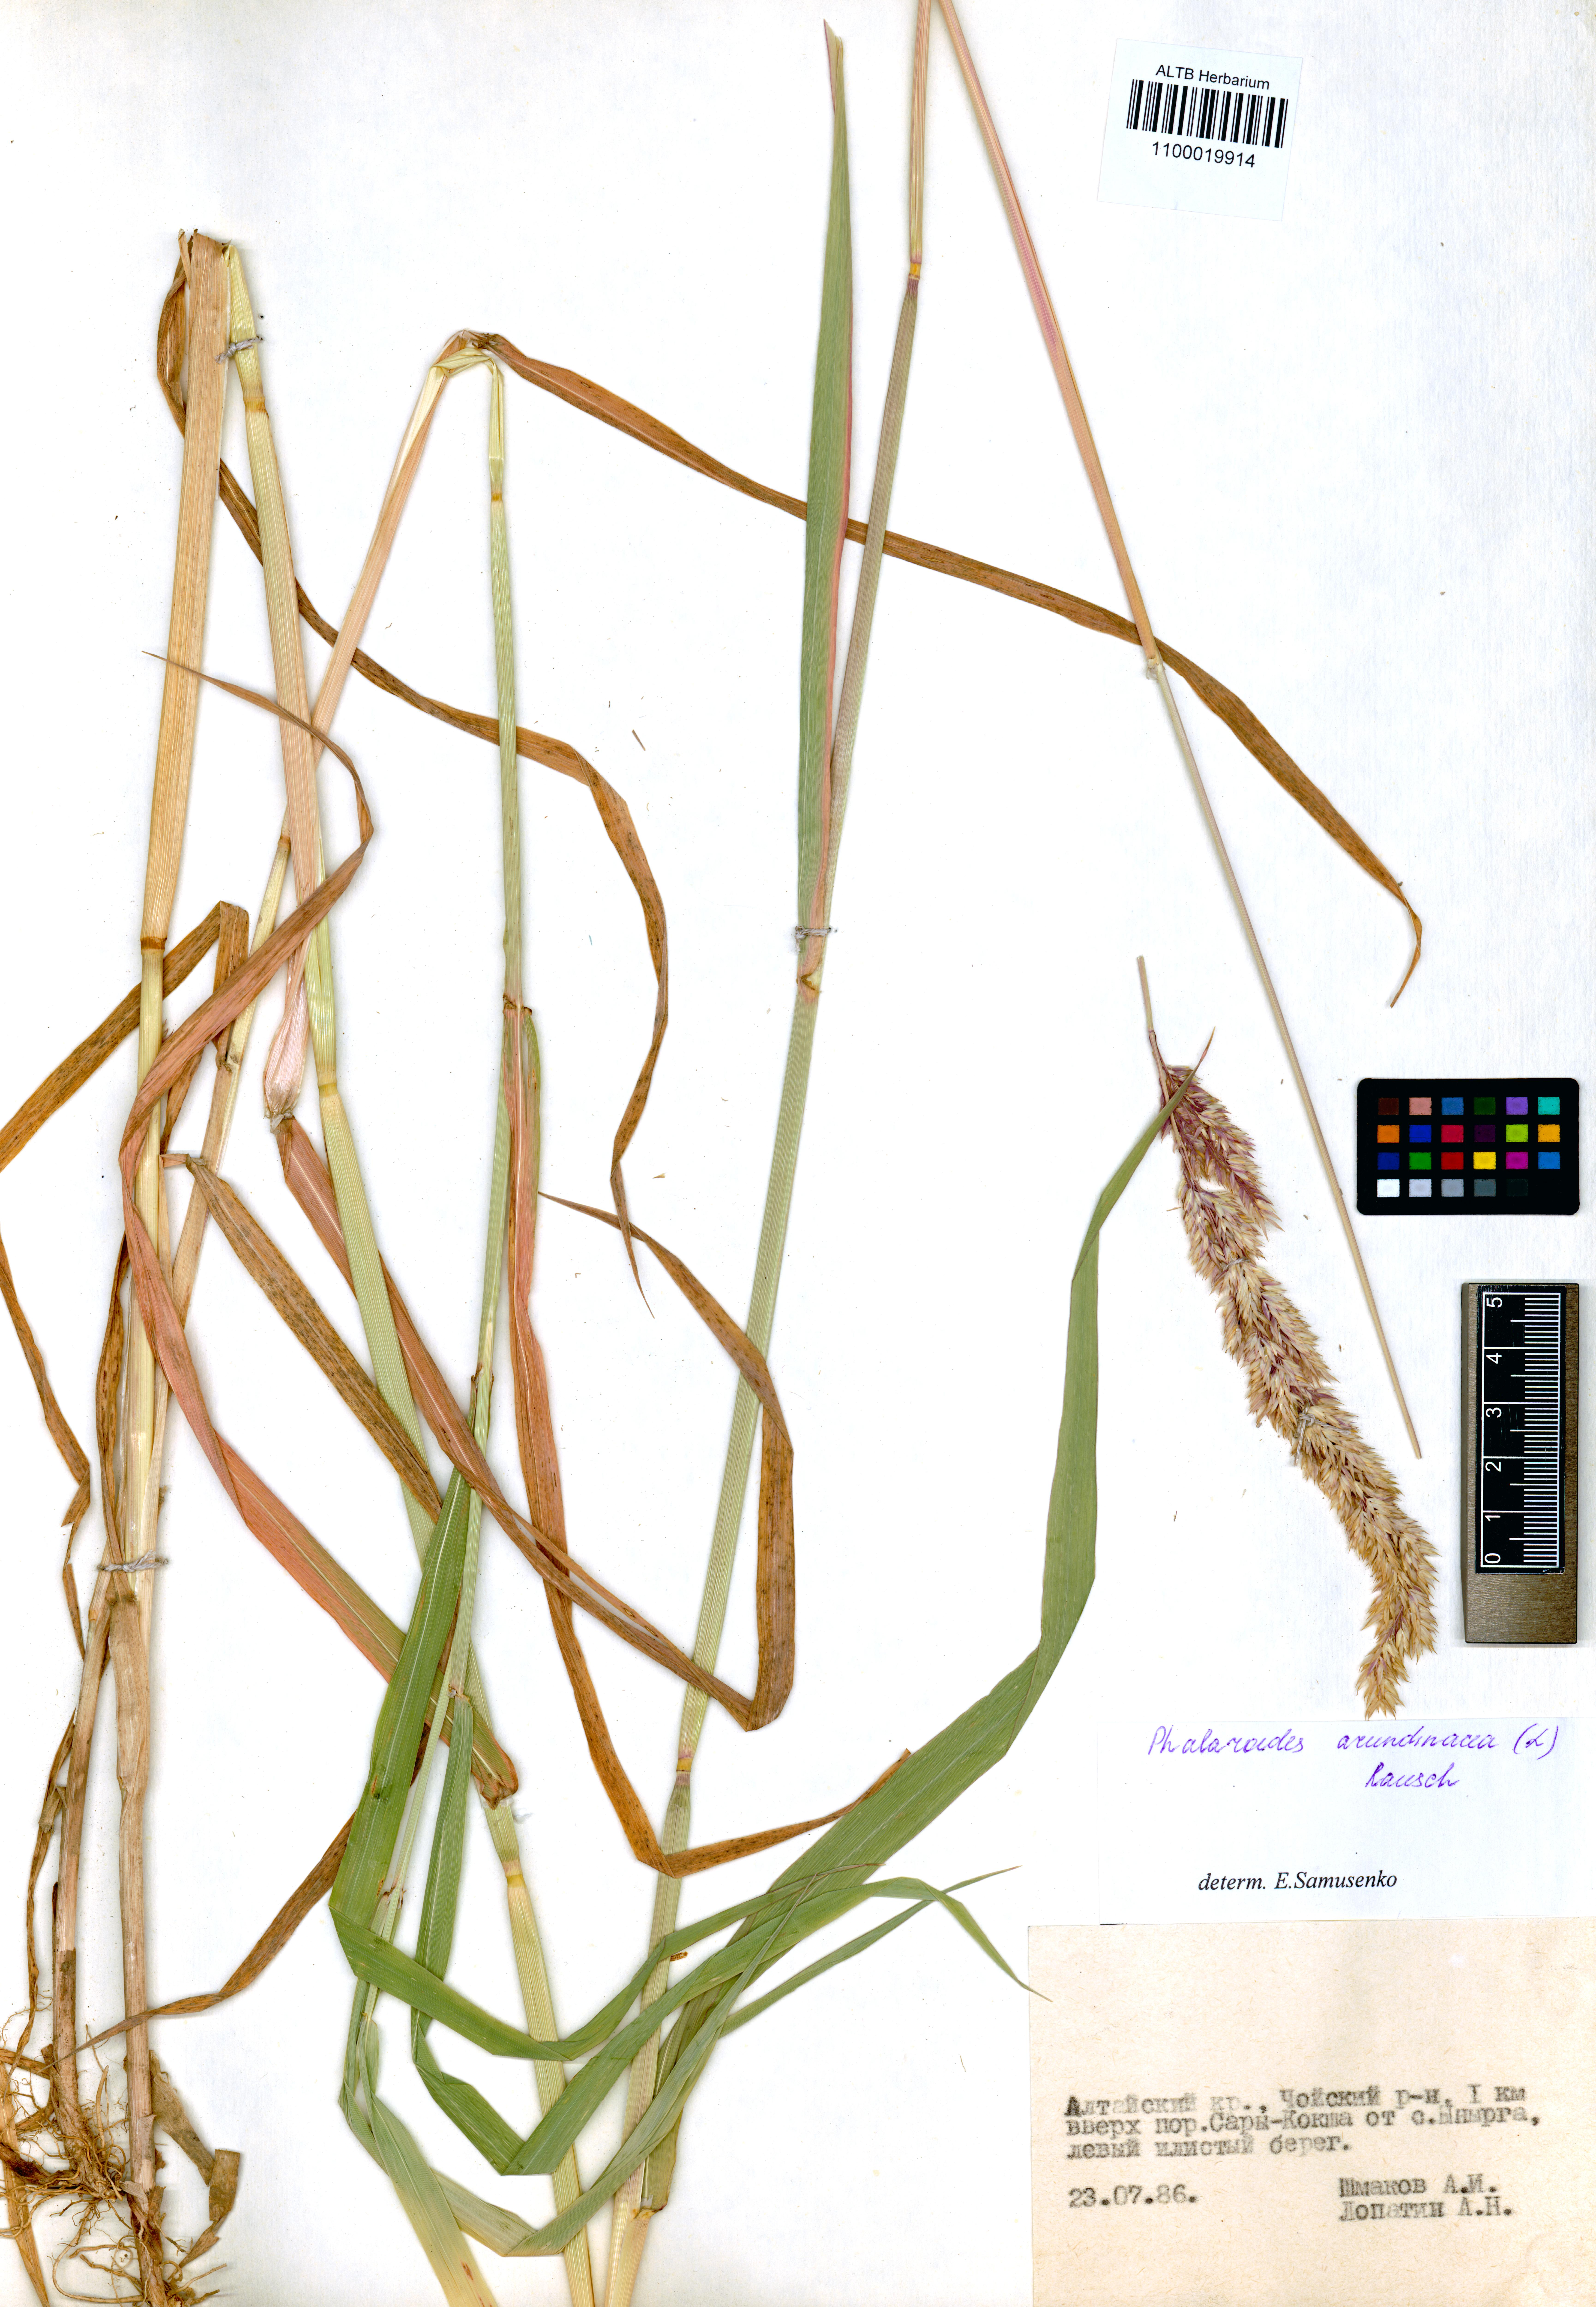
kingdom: Plantae
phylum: Tracheophyta
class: Liliopsida
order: Poales
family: Poaceae
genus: Phalaris
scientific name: Phalaris arundinacea
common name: Reed canary-grass
